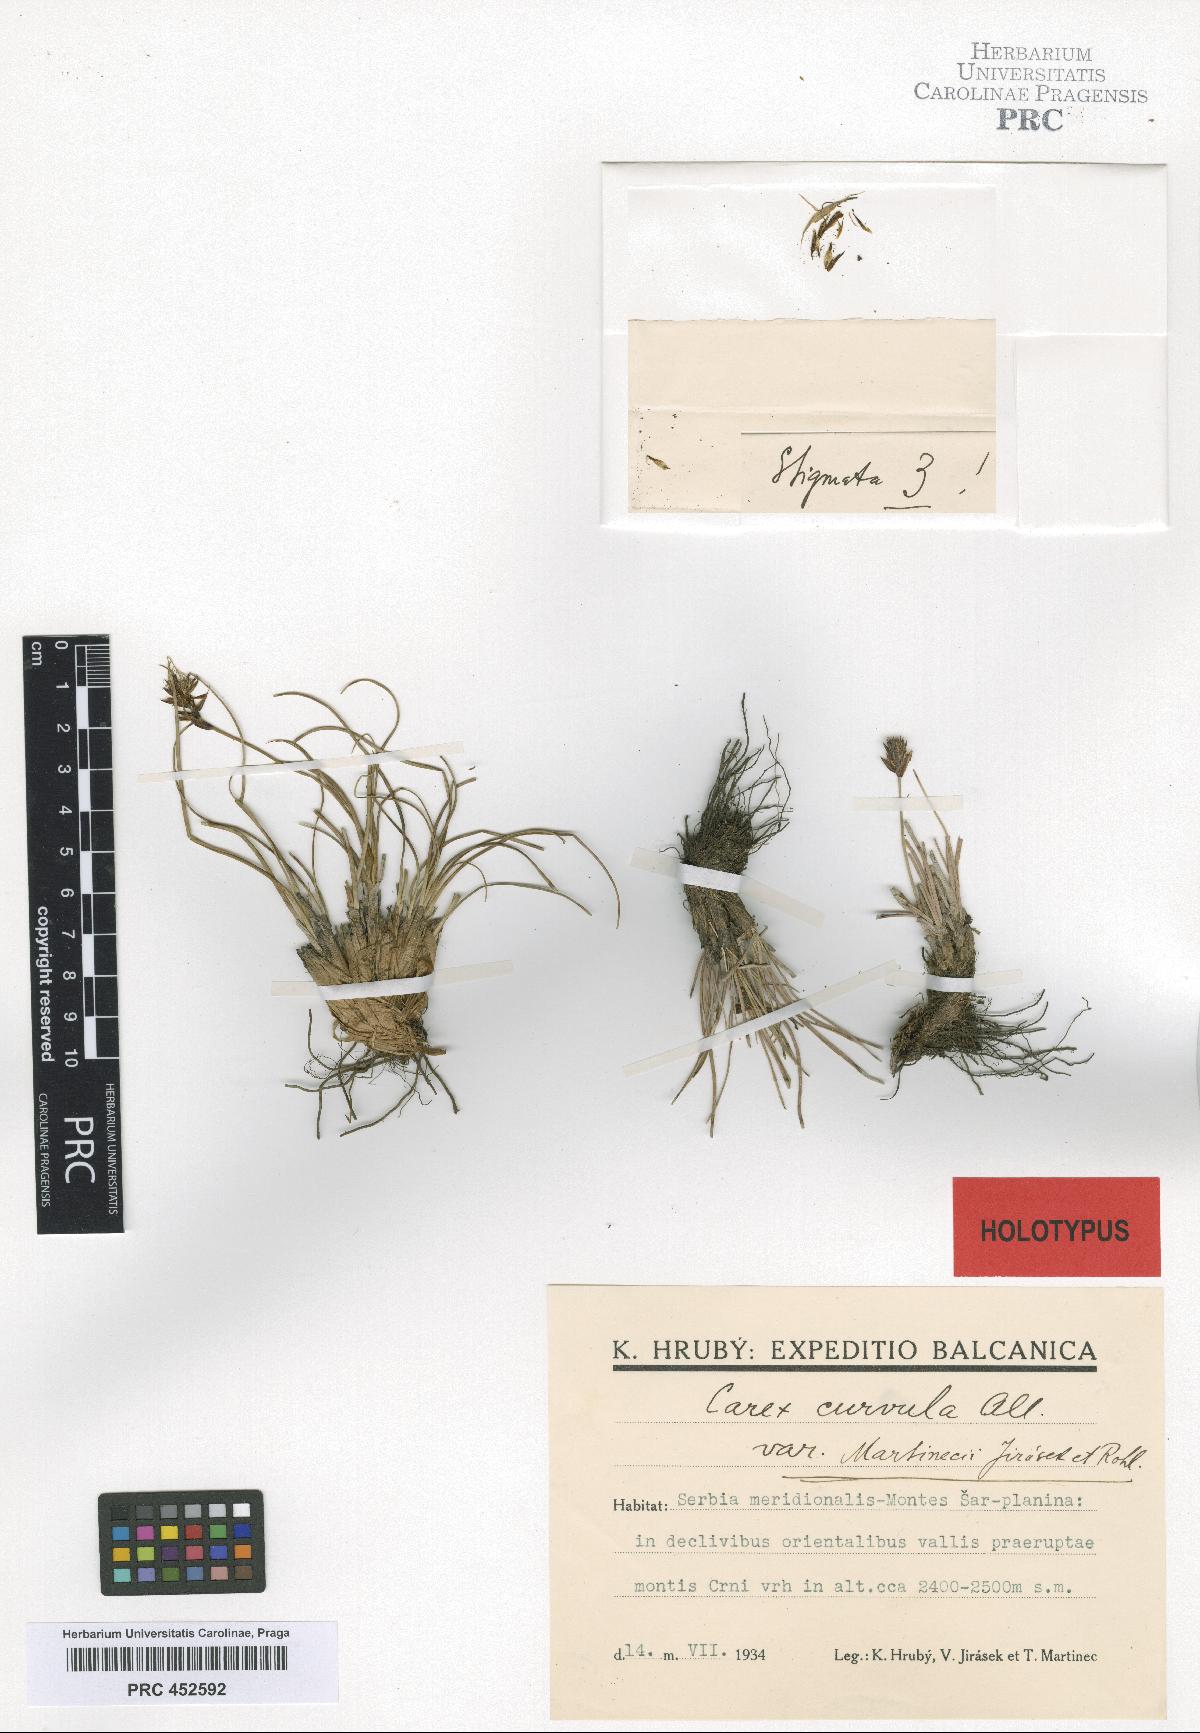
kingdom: Plantae
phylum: Tracheophyta
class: Liliopsida
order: Poales
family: Cyperaceae
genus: Carex
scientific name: Carex curvula
